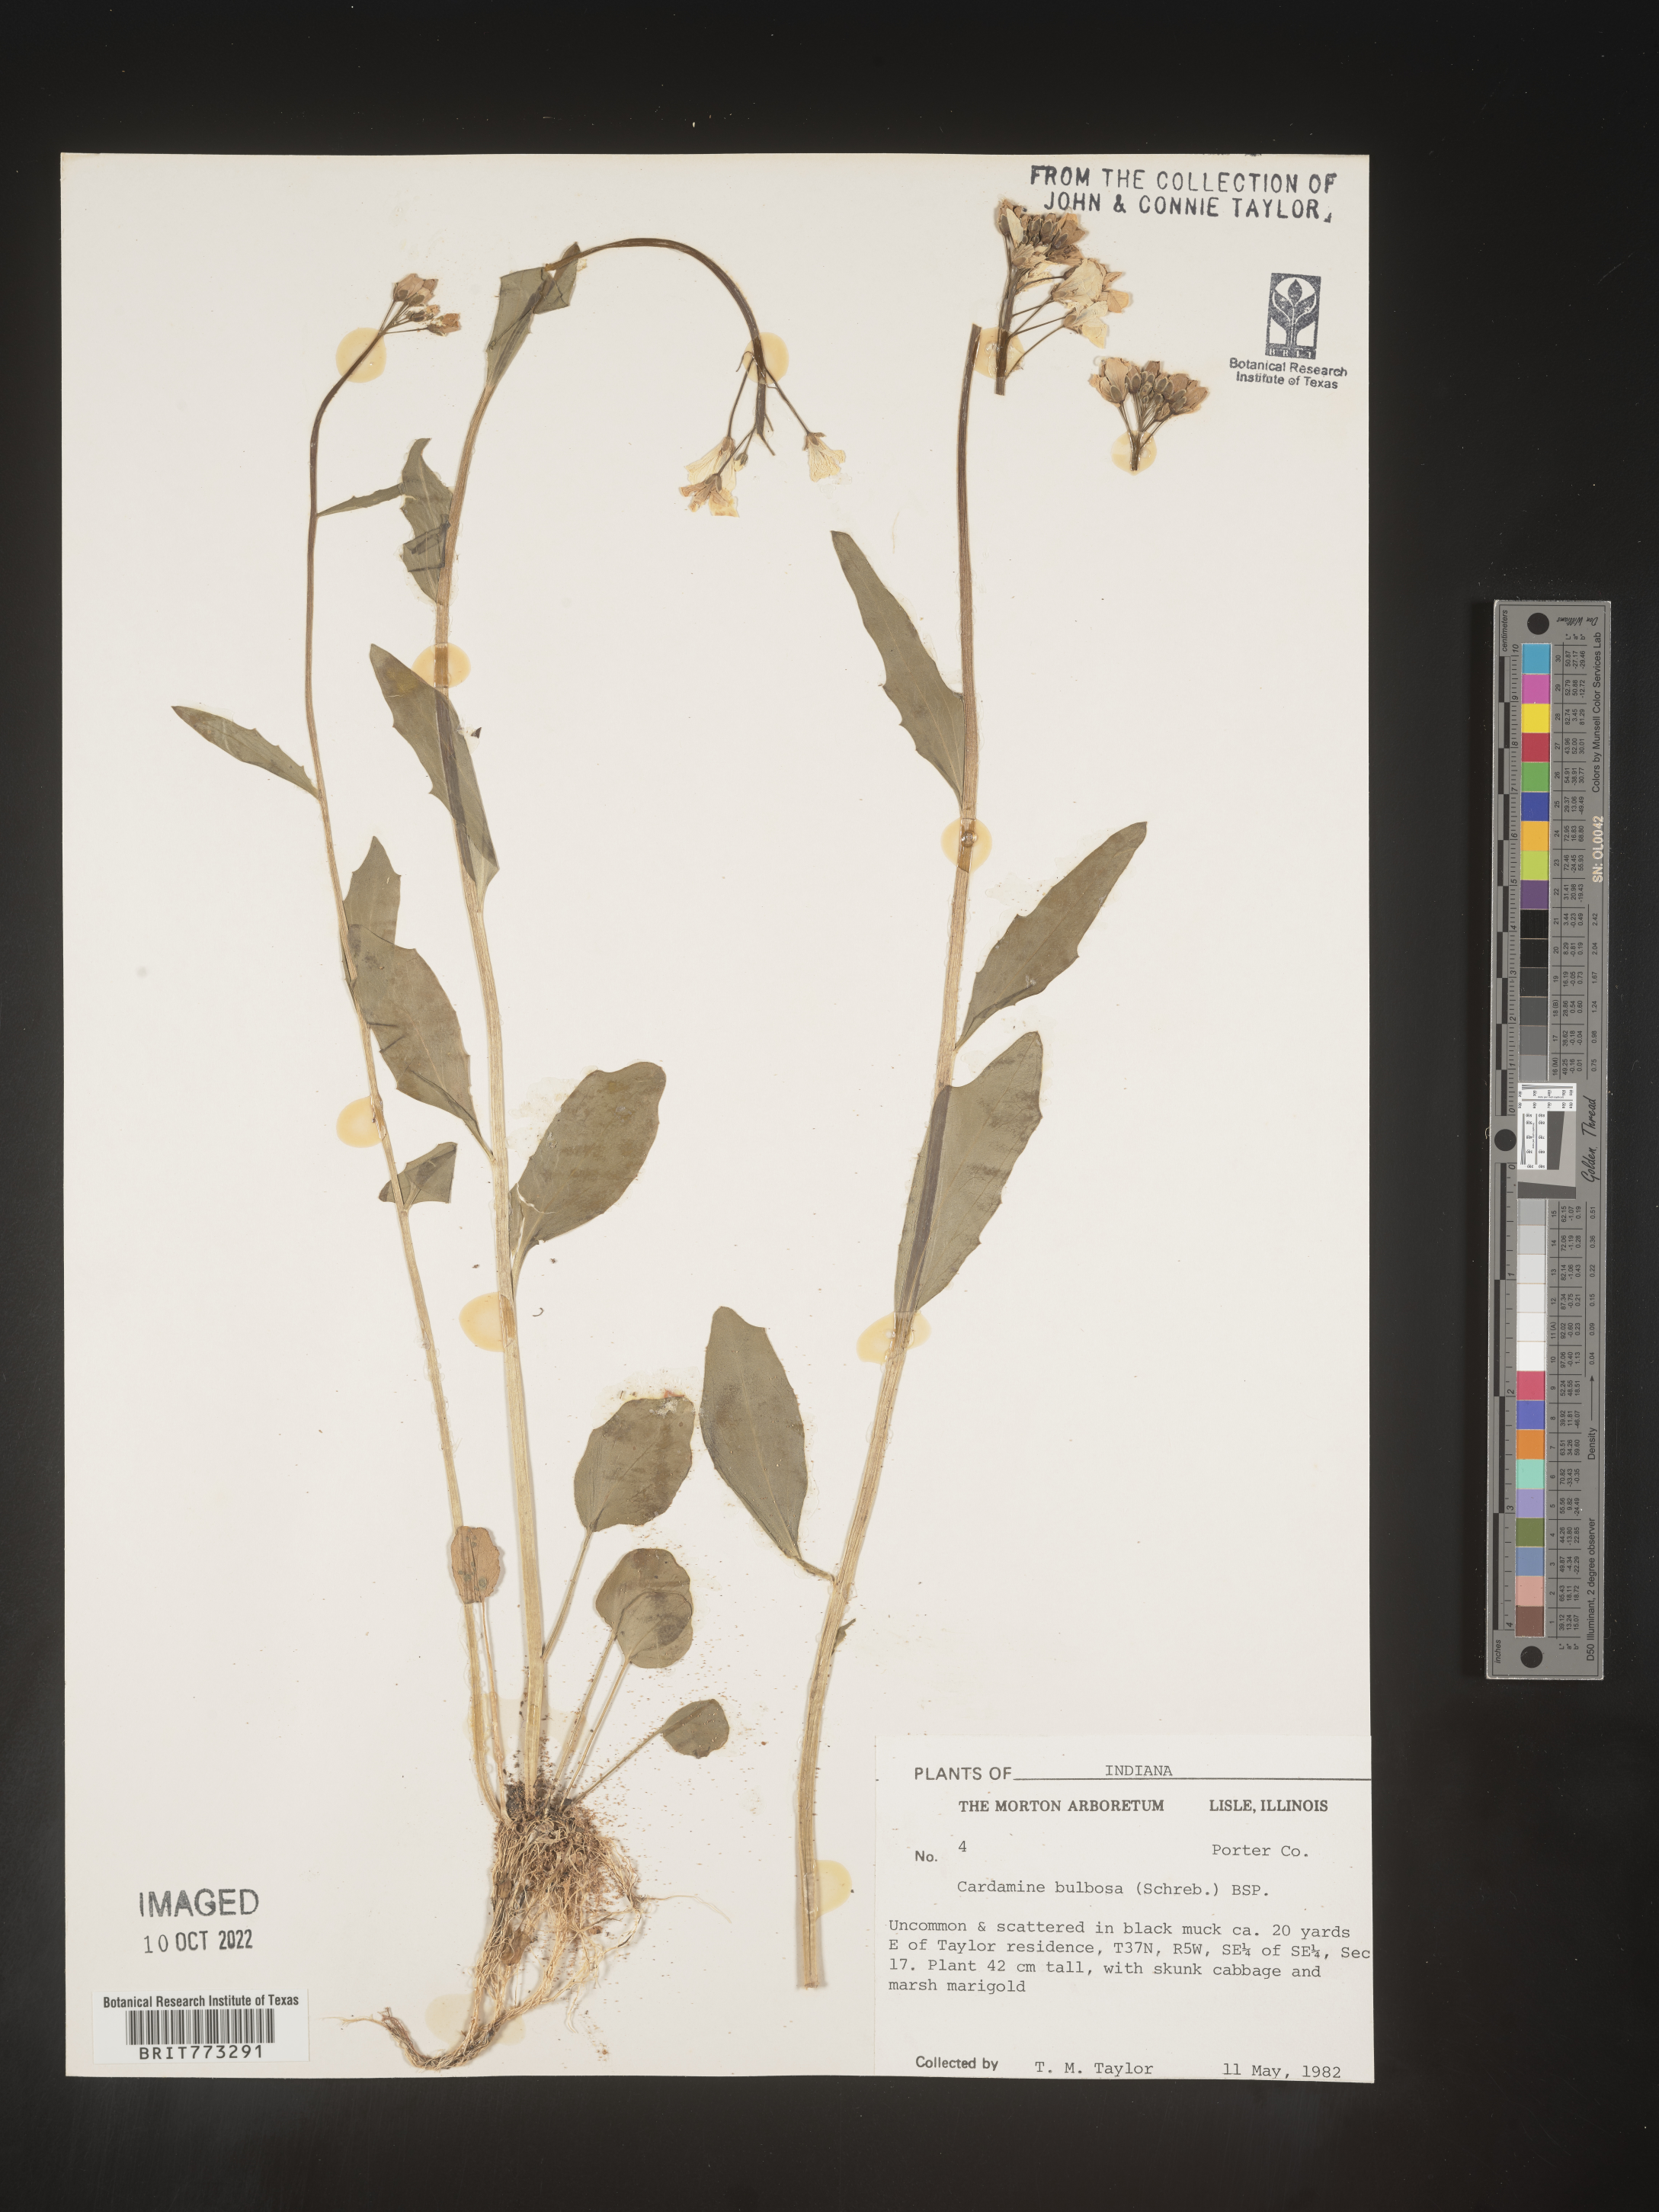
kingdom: Plantae
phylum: Tracheophyta
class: Magnoliopsida
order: Brassicales
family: Brassicaceae
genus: Cardamine
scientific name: Cardamine bulbosa
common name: Spring cress
